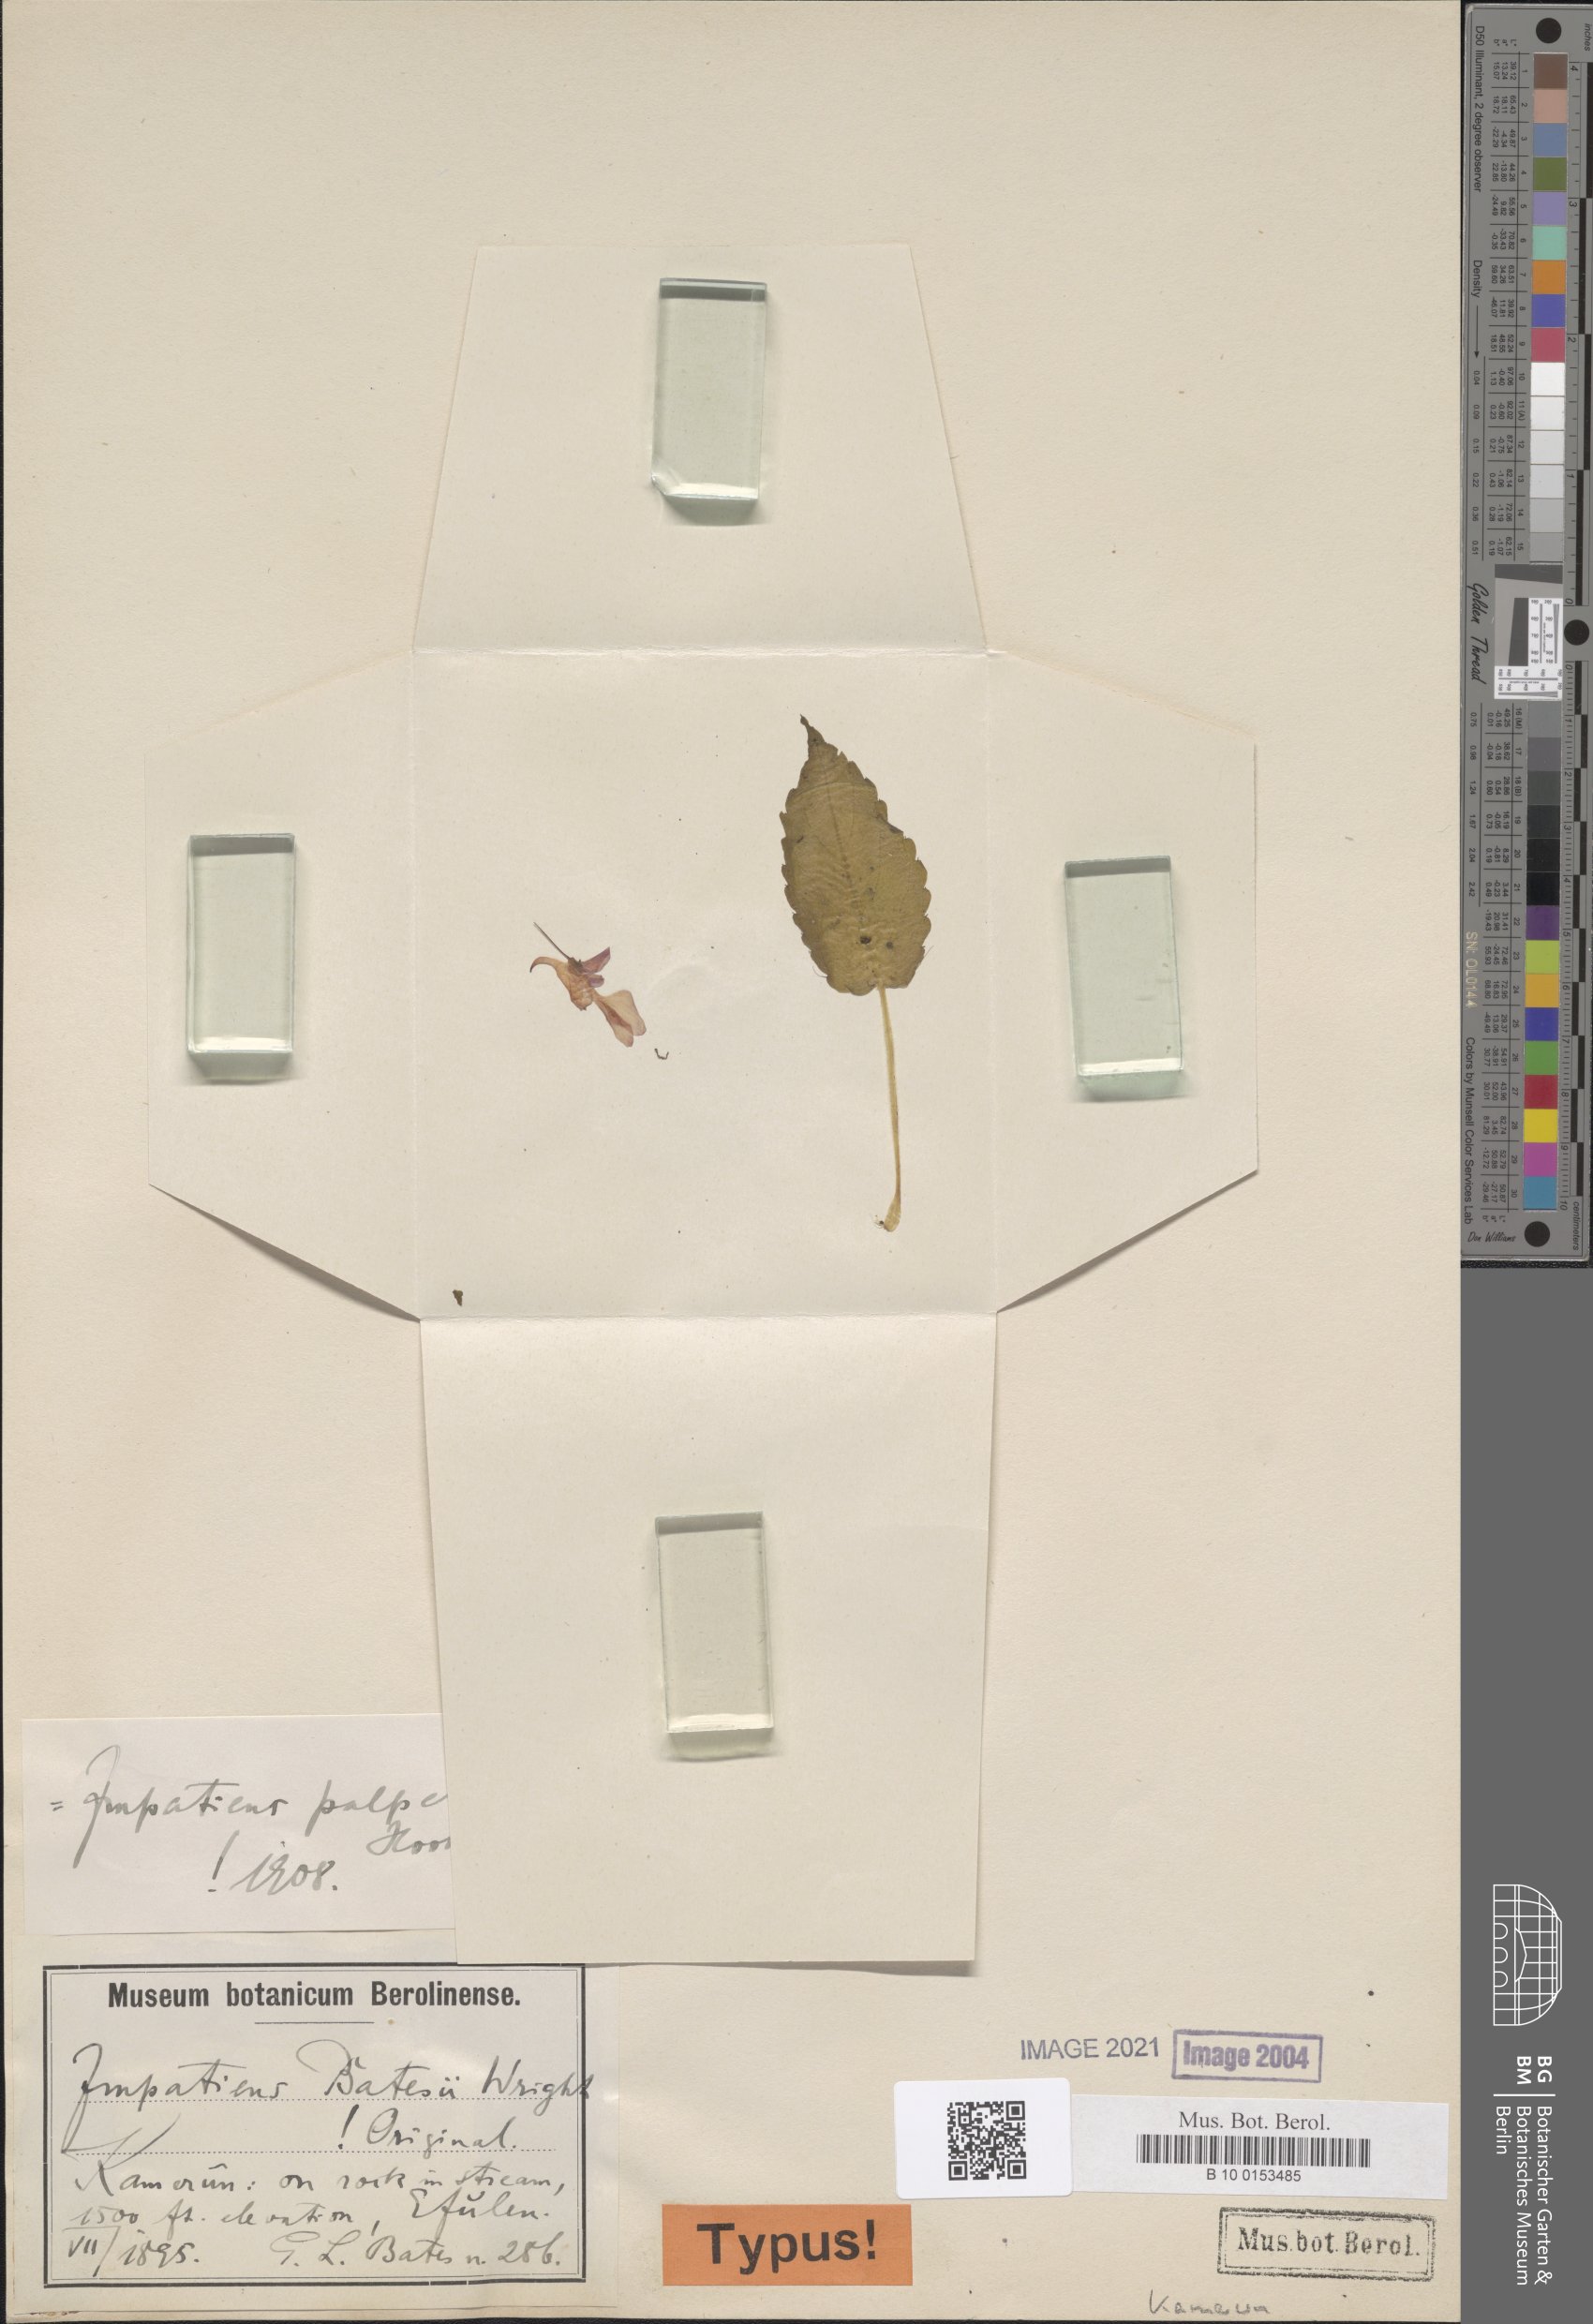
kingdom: Plantae
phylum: Tracheophyta
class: Magnoliopsida
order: Ericales
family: Balsaminaceae
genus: Impatiens
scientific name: Impatiens palpebrata
